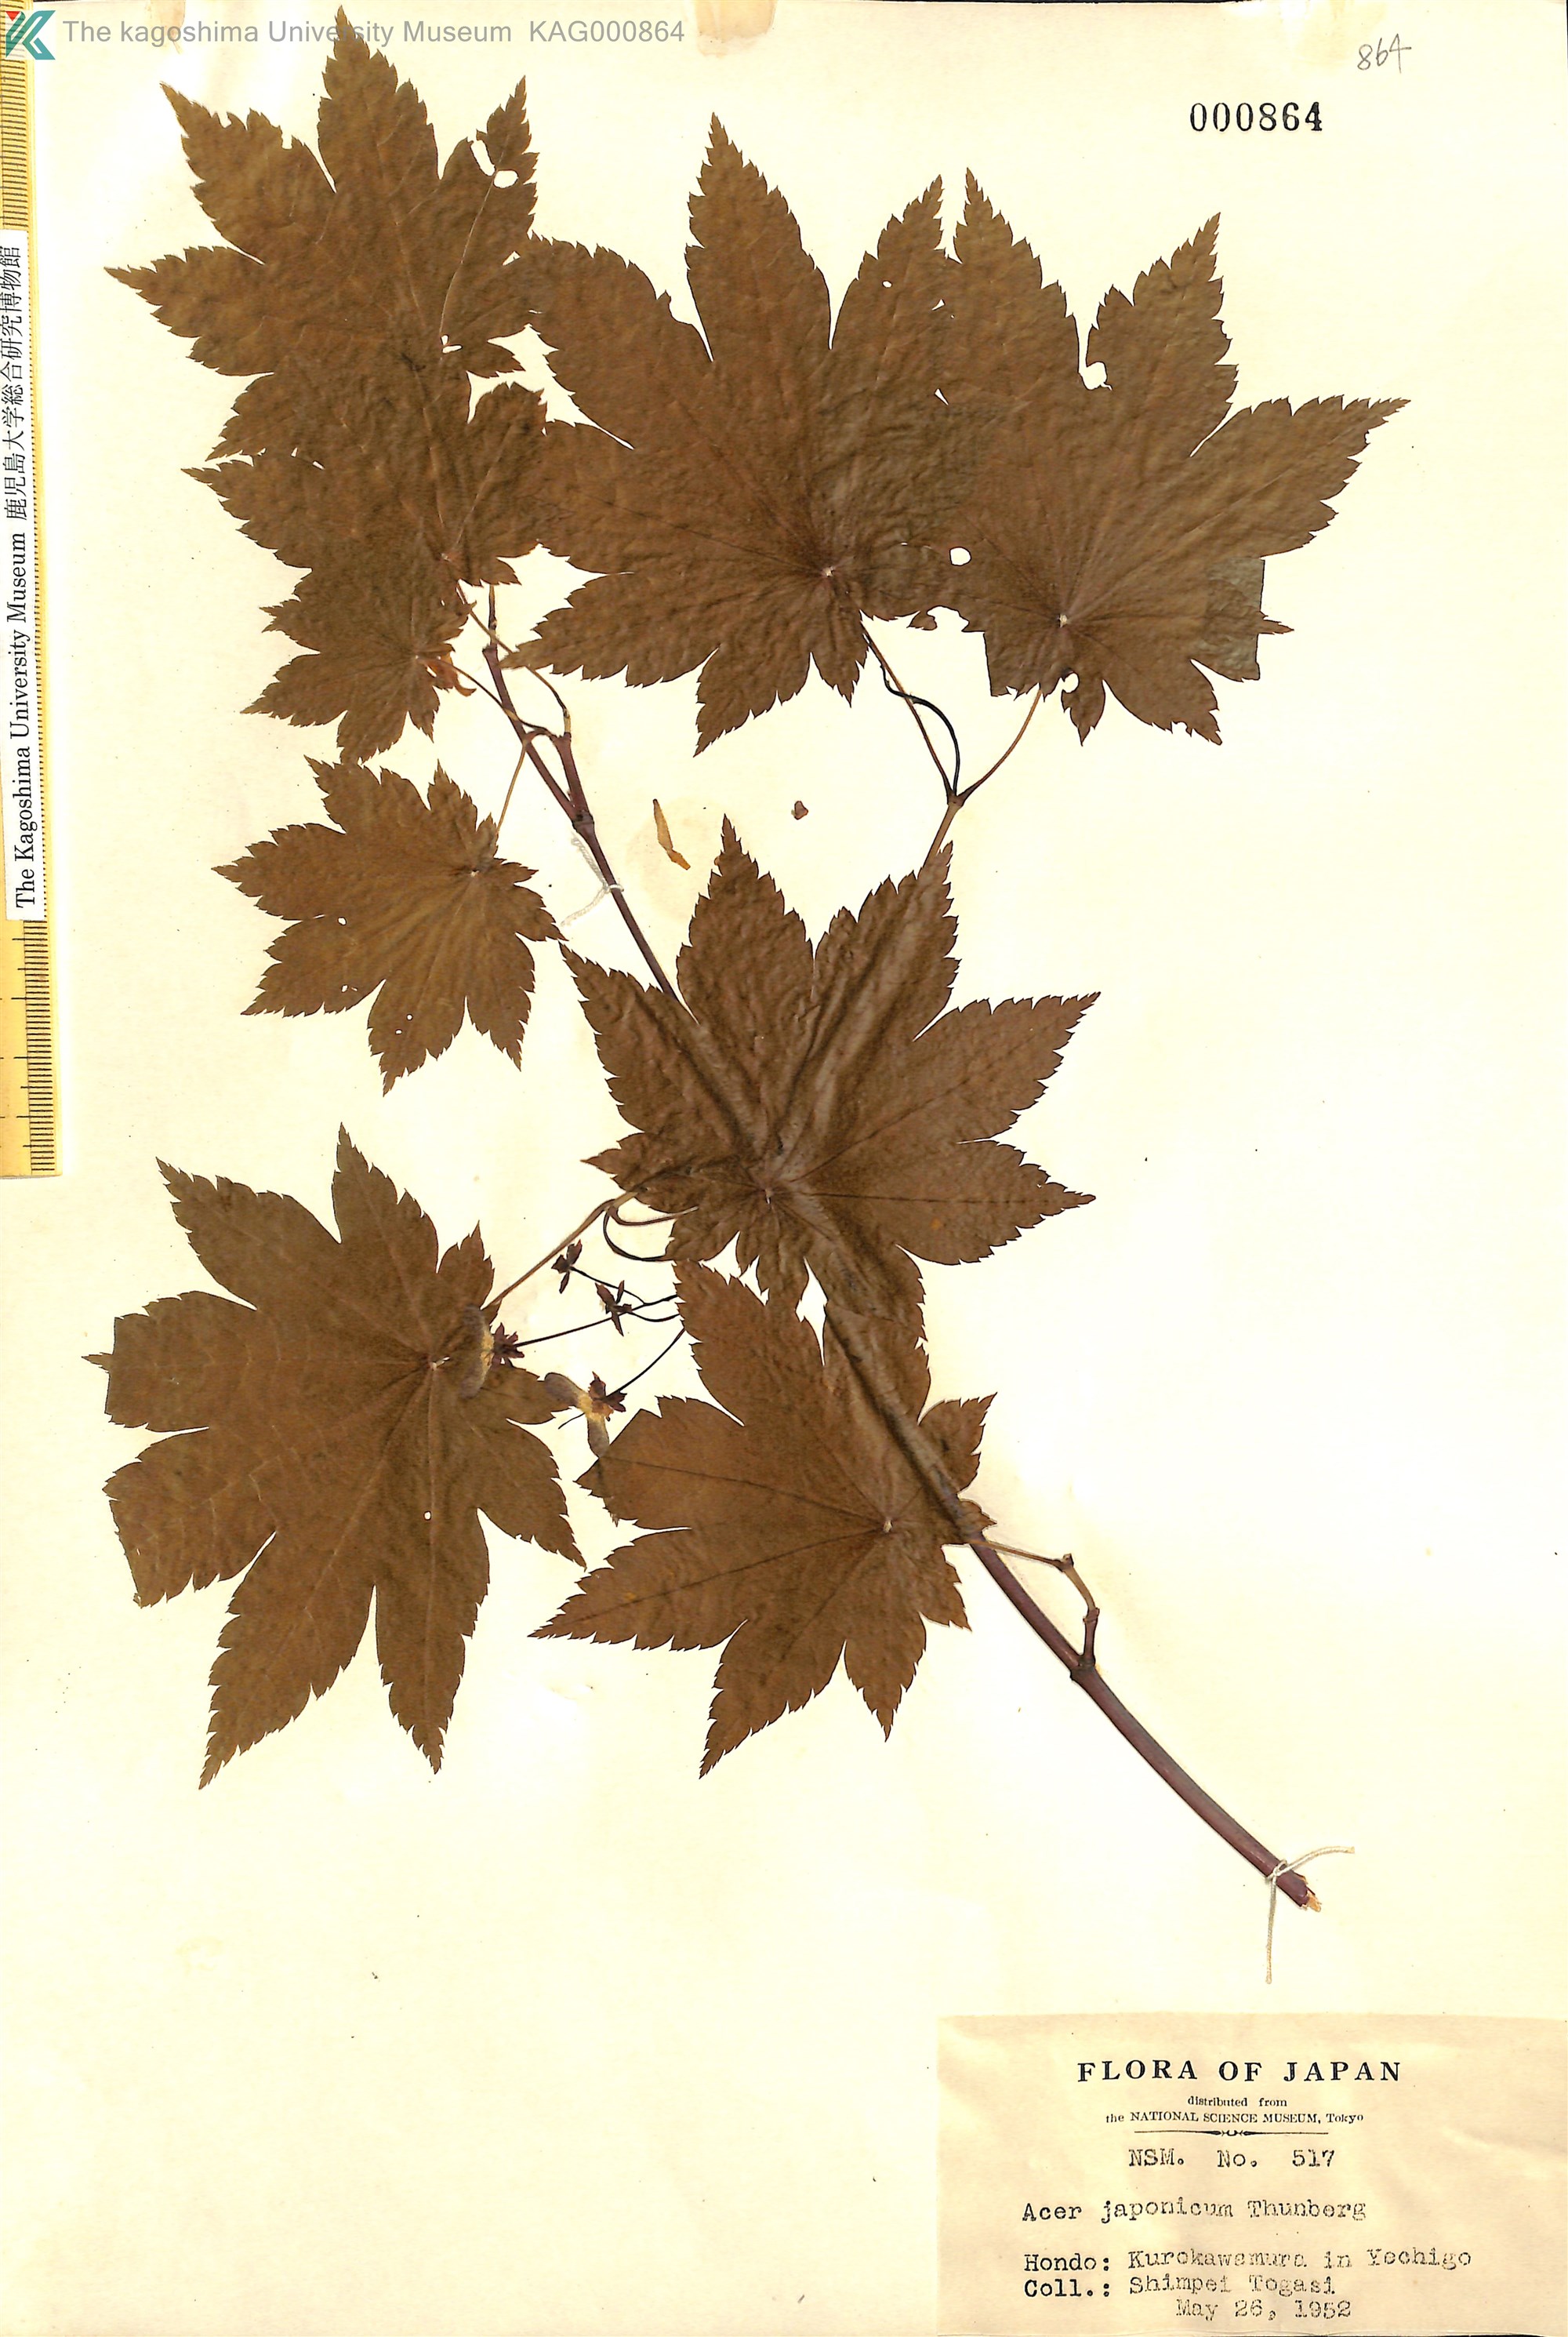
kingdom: Plantae
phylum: Tracheophyta
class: Magnoliopsida
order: Sapindales
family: Sapindaceae
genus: Acer
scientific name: Acer japonicum
